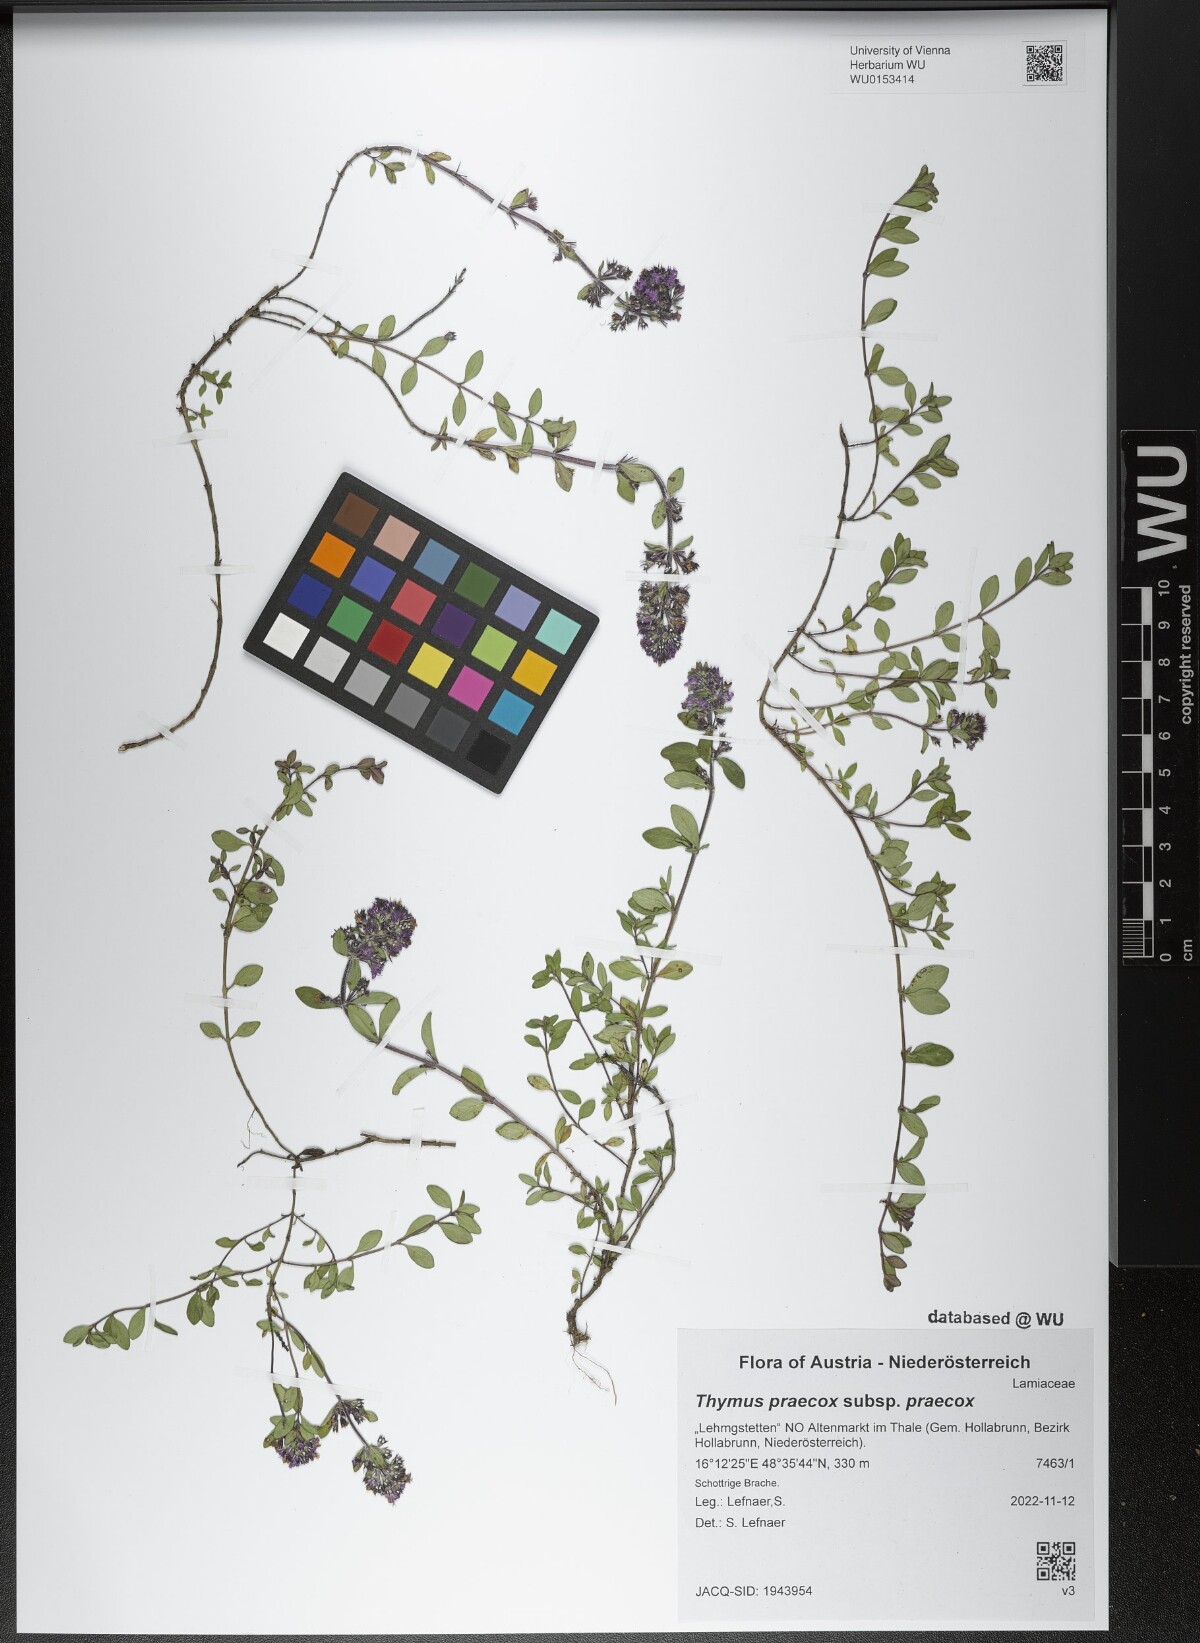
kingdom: Plantae
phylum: Tracheophyta
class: Magnoliopsida
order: Lamiales
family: Lamiaceae
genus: Thymus
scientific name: Thymus praecox
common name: Wild thyme
